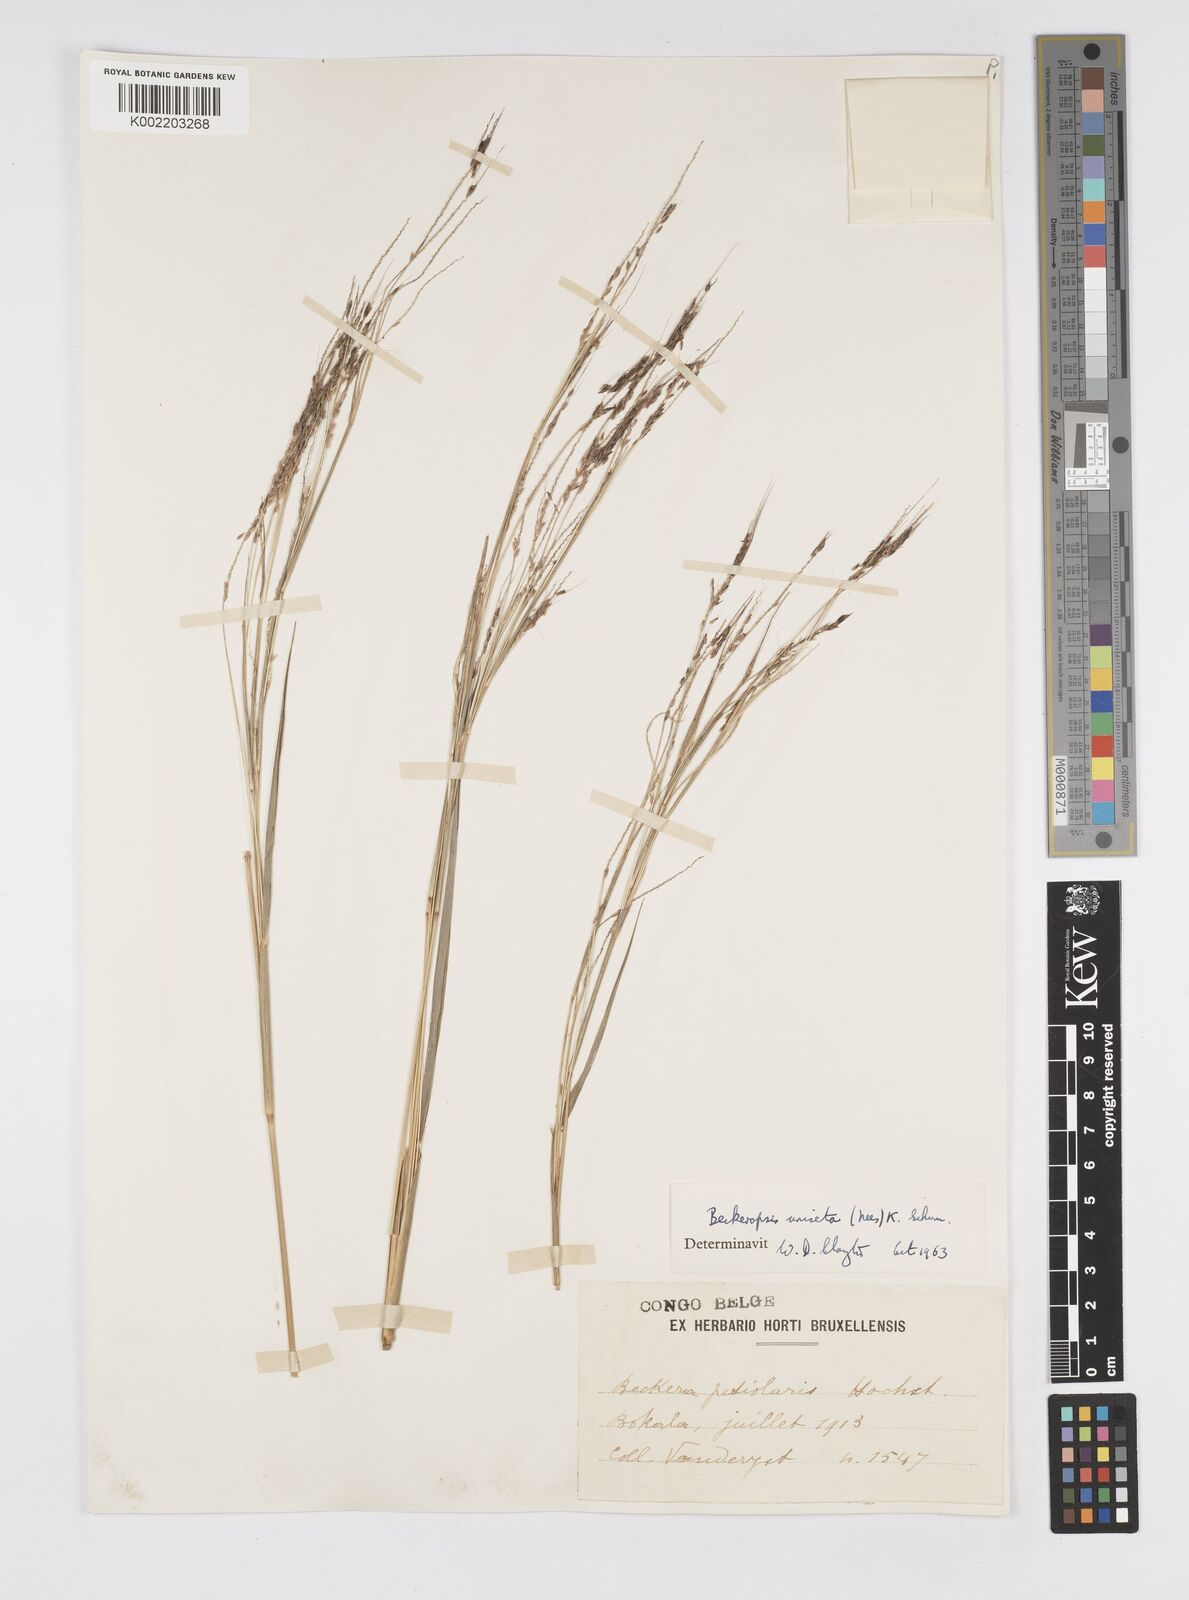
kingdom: Plantae
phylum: Tracheophyta
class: Liliopsida
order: Poales
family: Poaceae
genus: Cenchrus
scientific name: Cenchrus unisetus
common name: Natal grass
